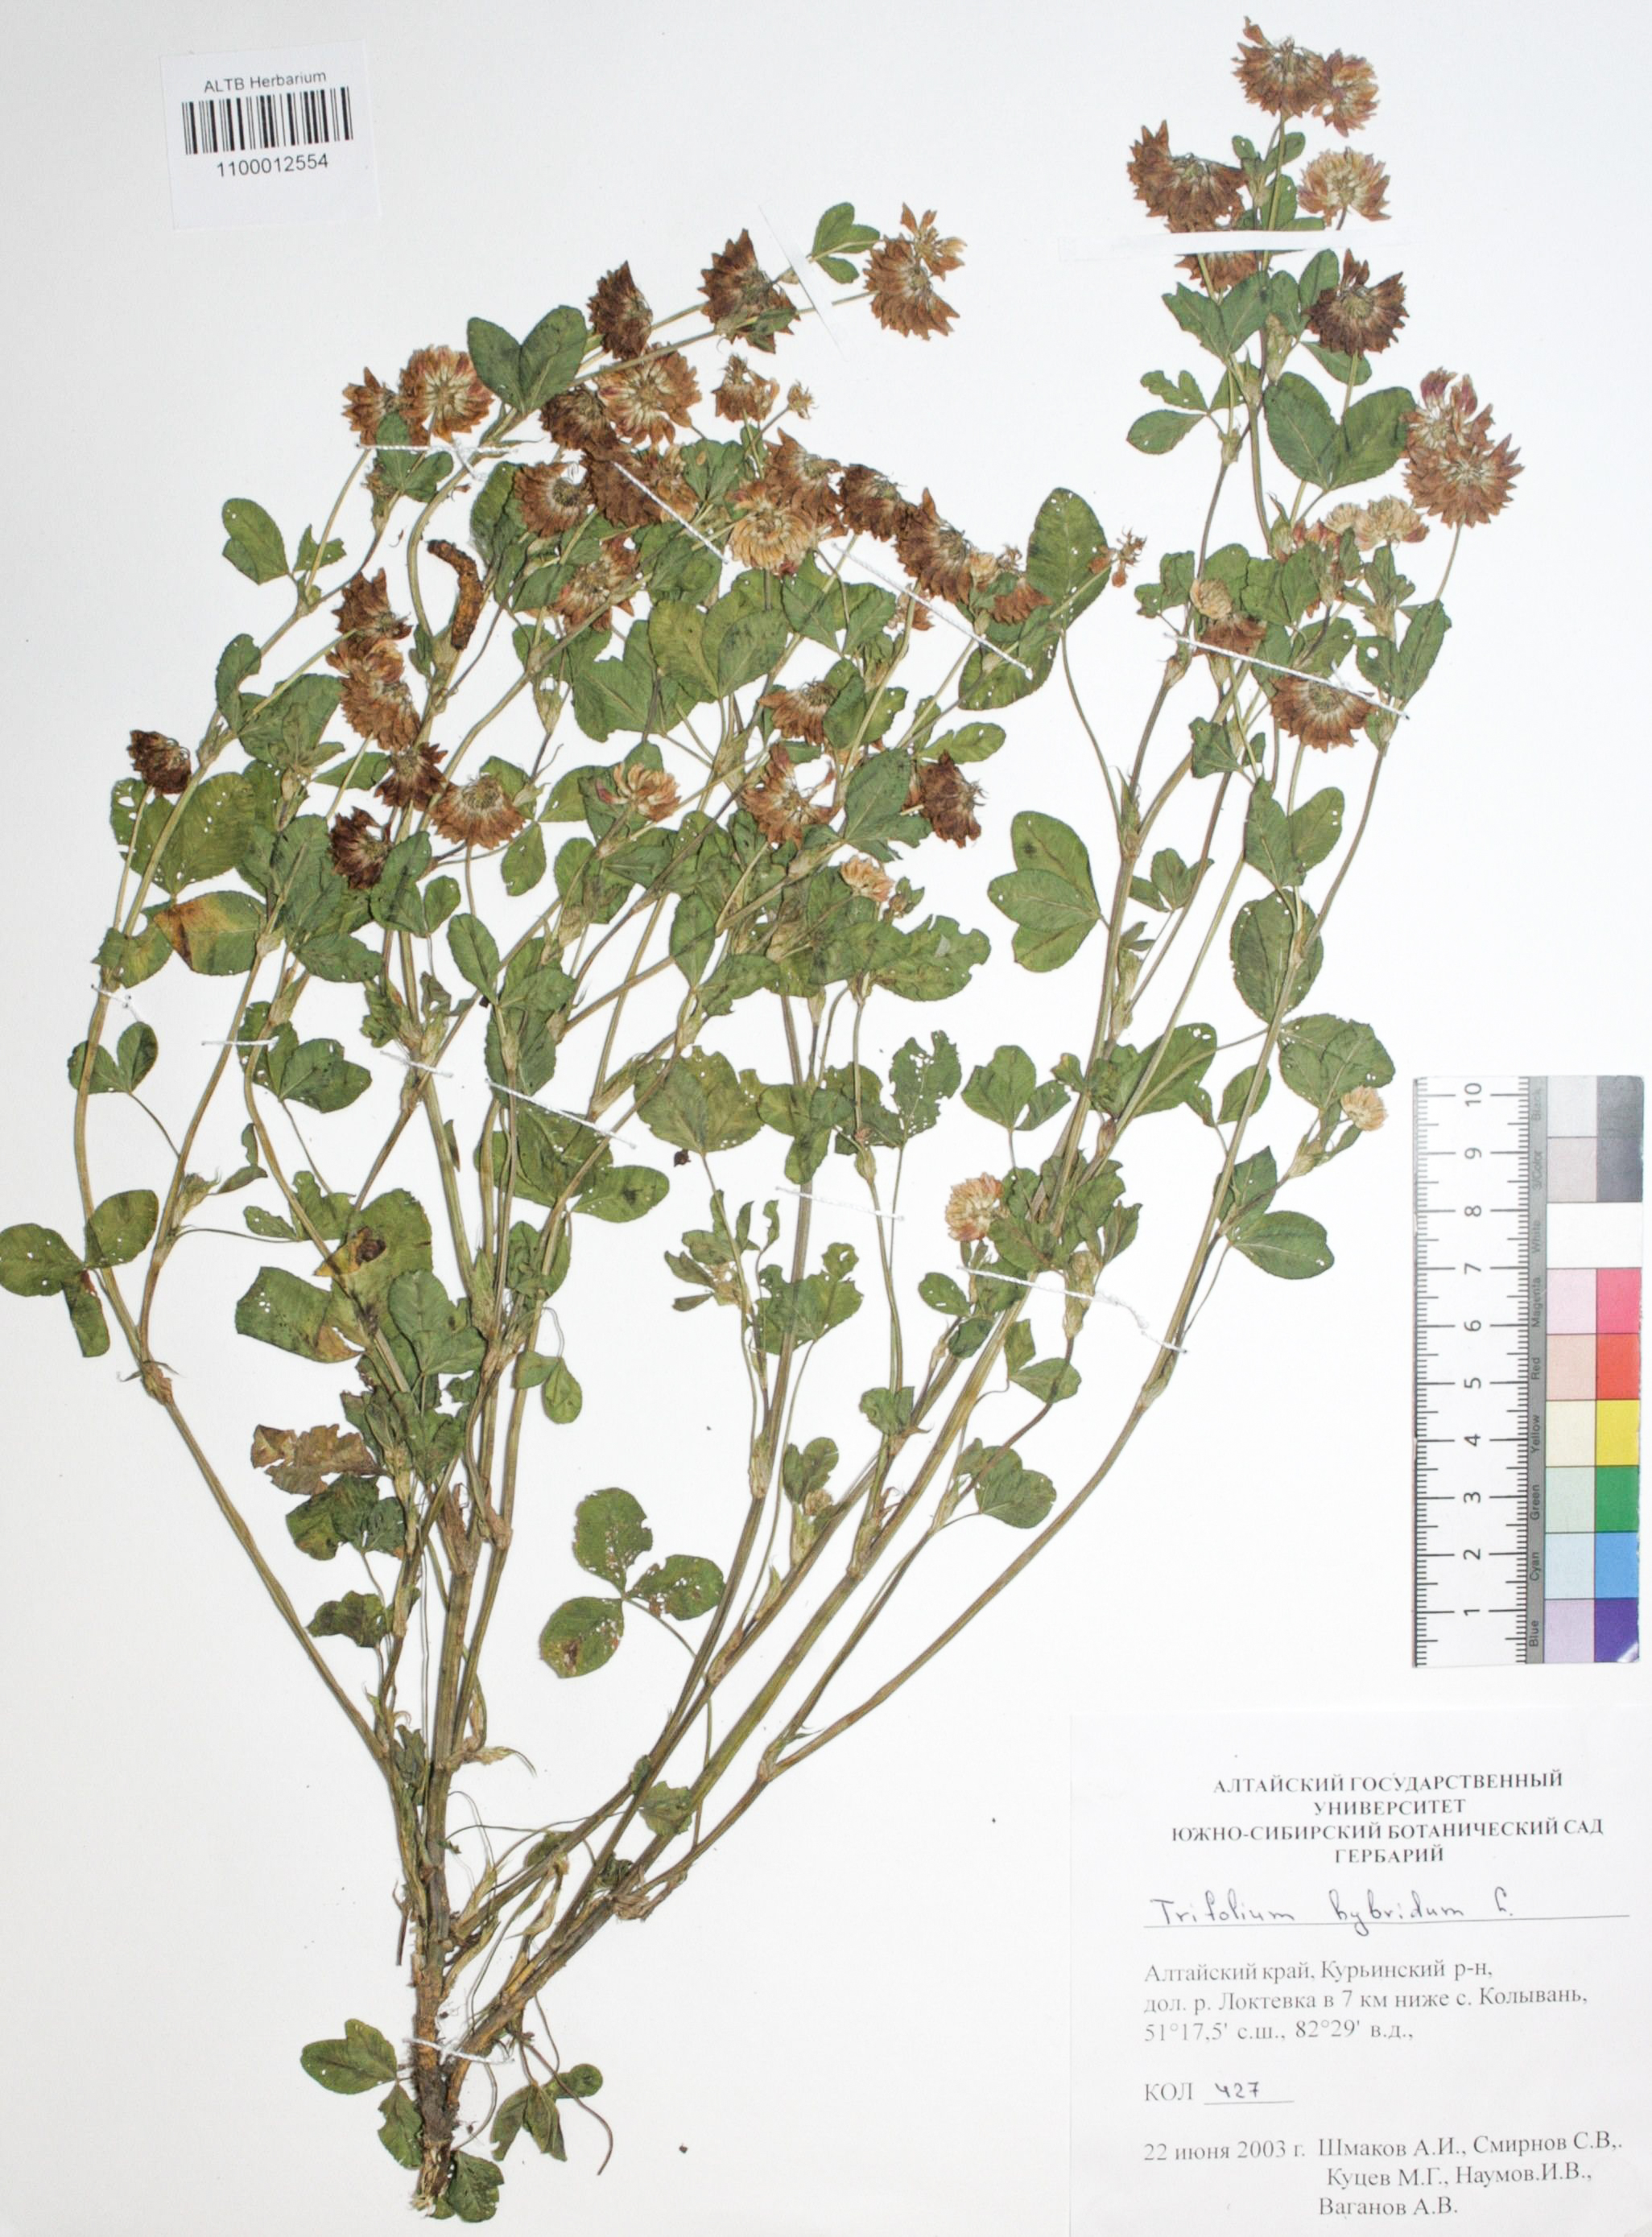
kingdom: Plantae
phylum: Tracheophyta
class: Magnoliopsida
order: Fabales
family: Fabaceae
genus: Trifolium
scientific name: Trifolium hybridum
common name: Alsike clover
